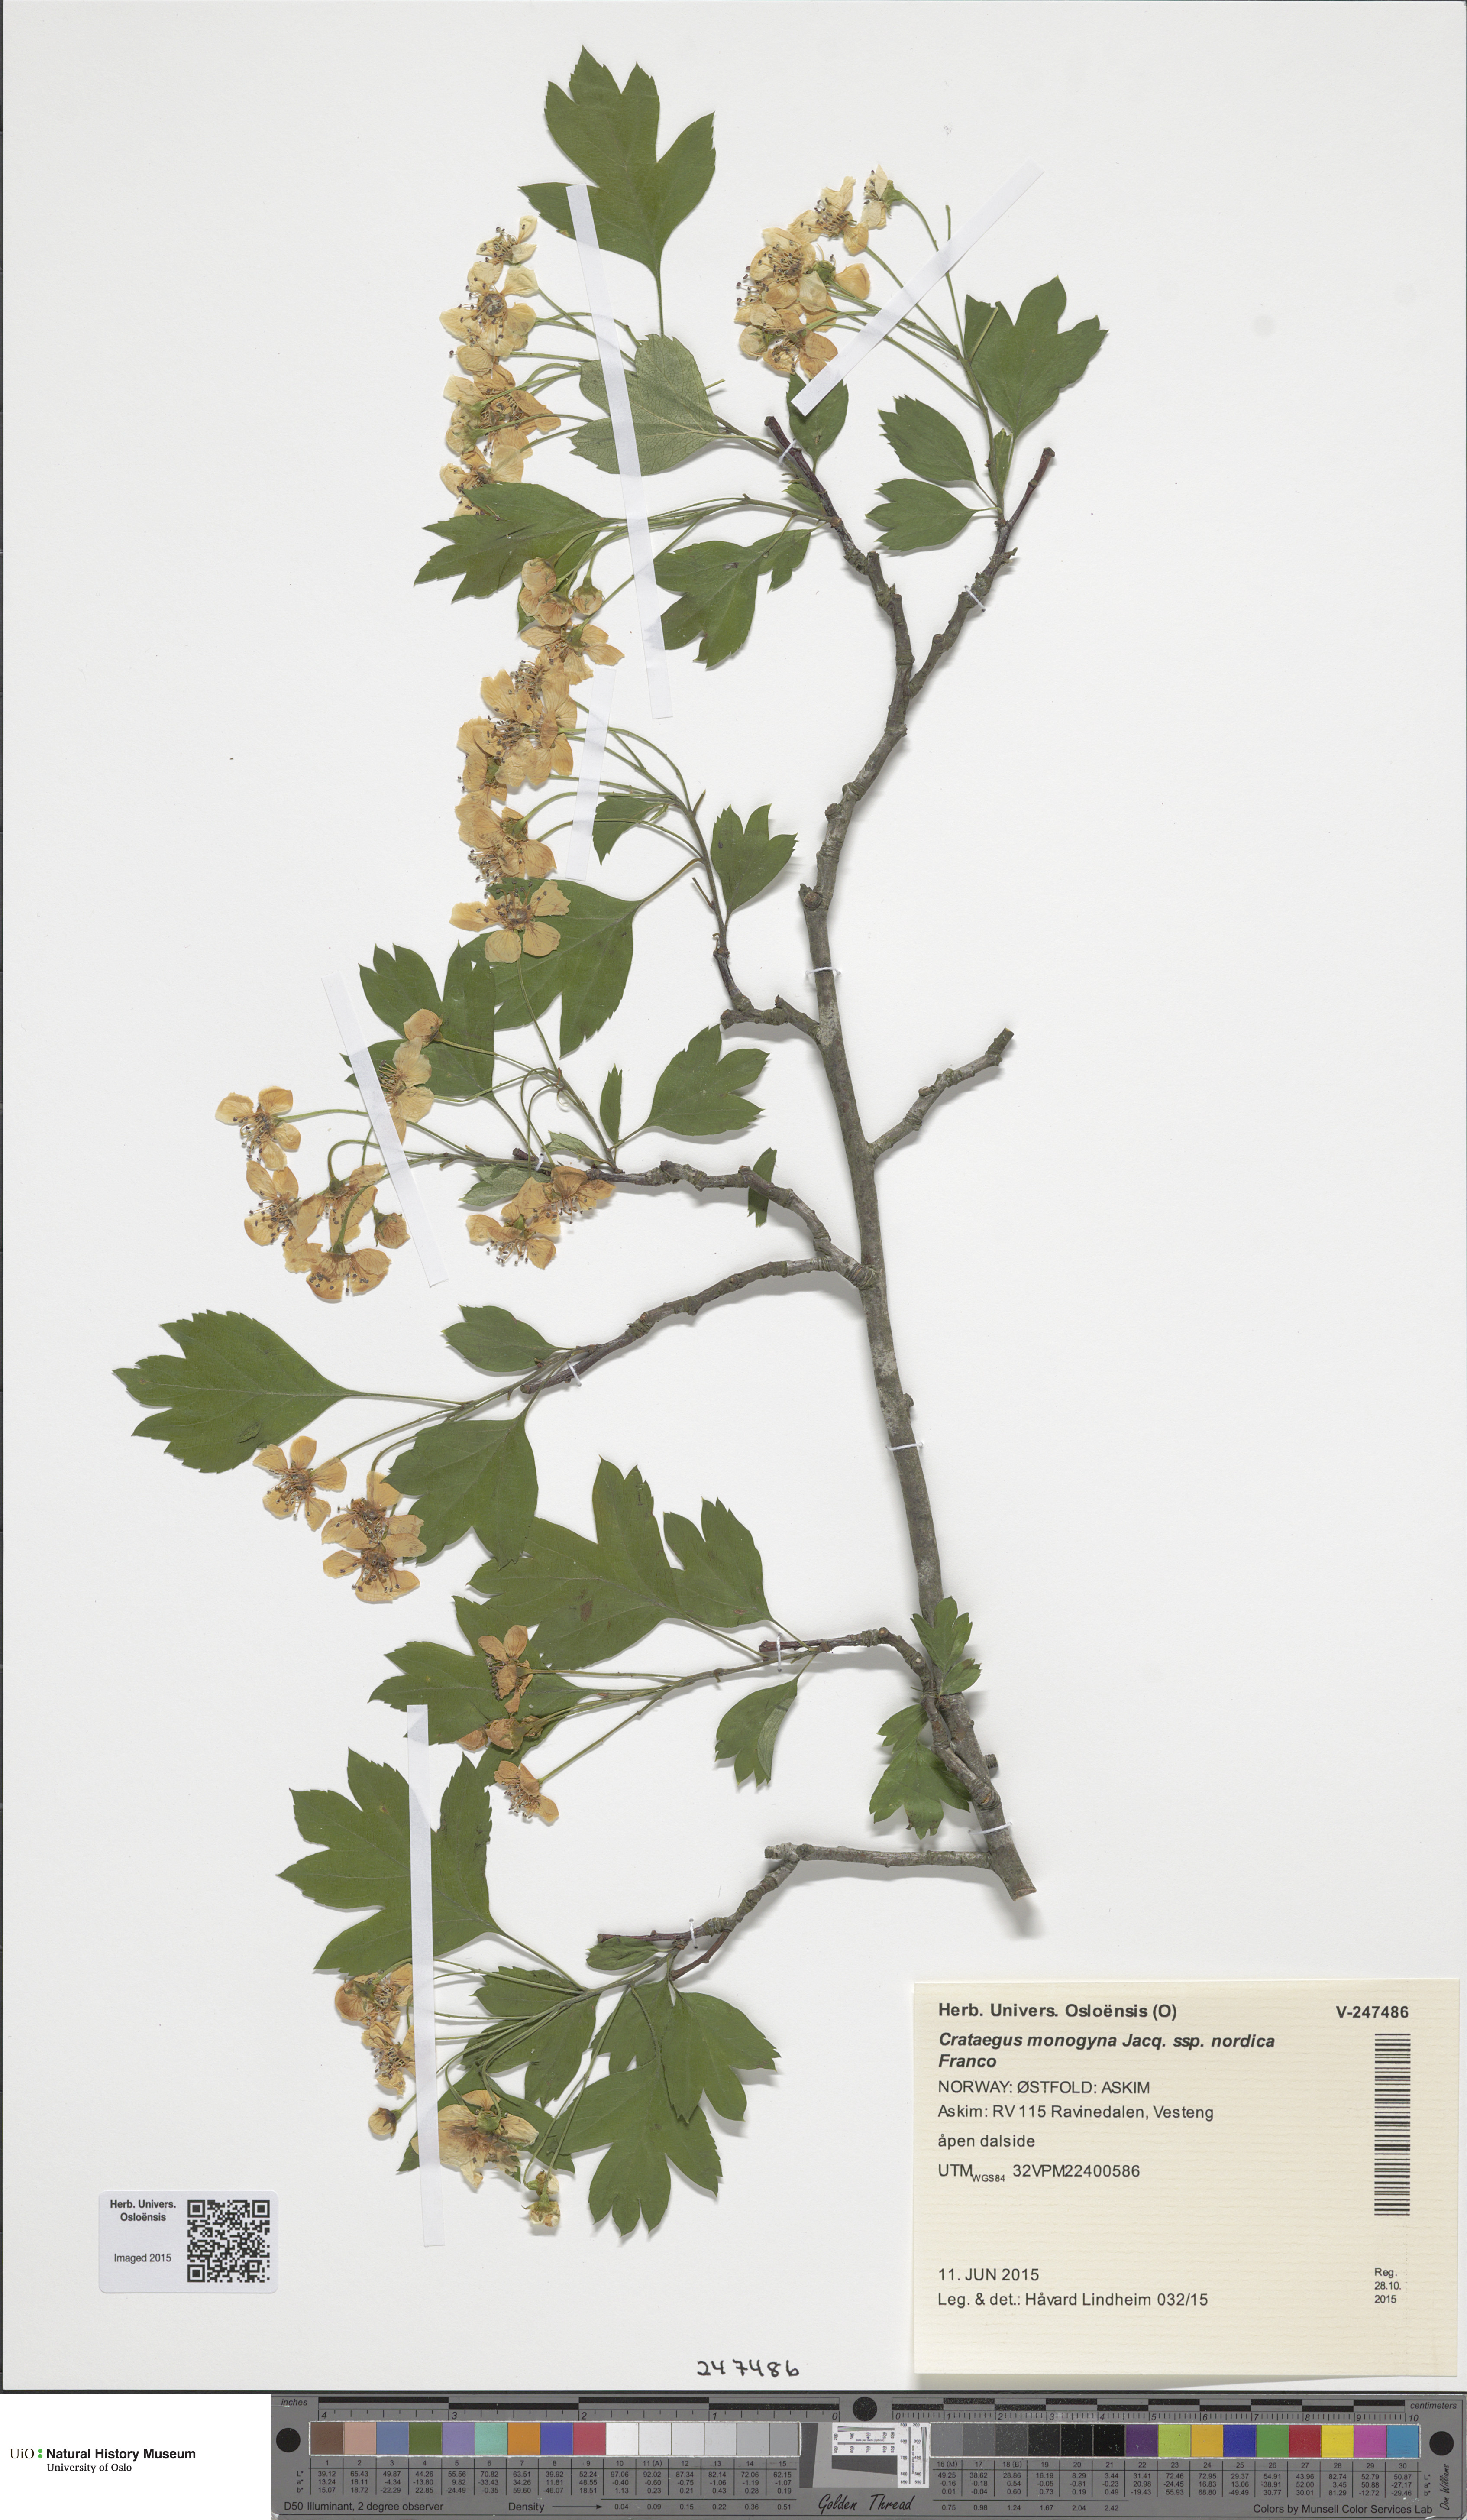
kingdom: Plantae
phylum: Tracheophyta
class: Magnoliopsida
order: Rosales
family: Rosaceae
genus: Crataegus
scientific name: Crataegus monogyna
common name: Hawthorn
